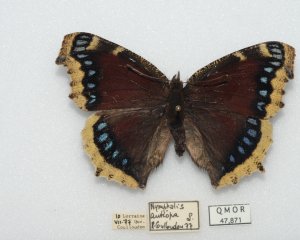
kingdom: Animalia
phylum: Arthropoda
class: Insecta
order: Lepidoptera
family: Nymphalidae
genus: Nymphalis
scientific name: Nymphalis antiopa
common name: Mourning Cloak
